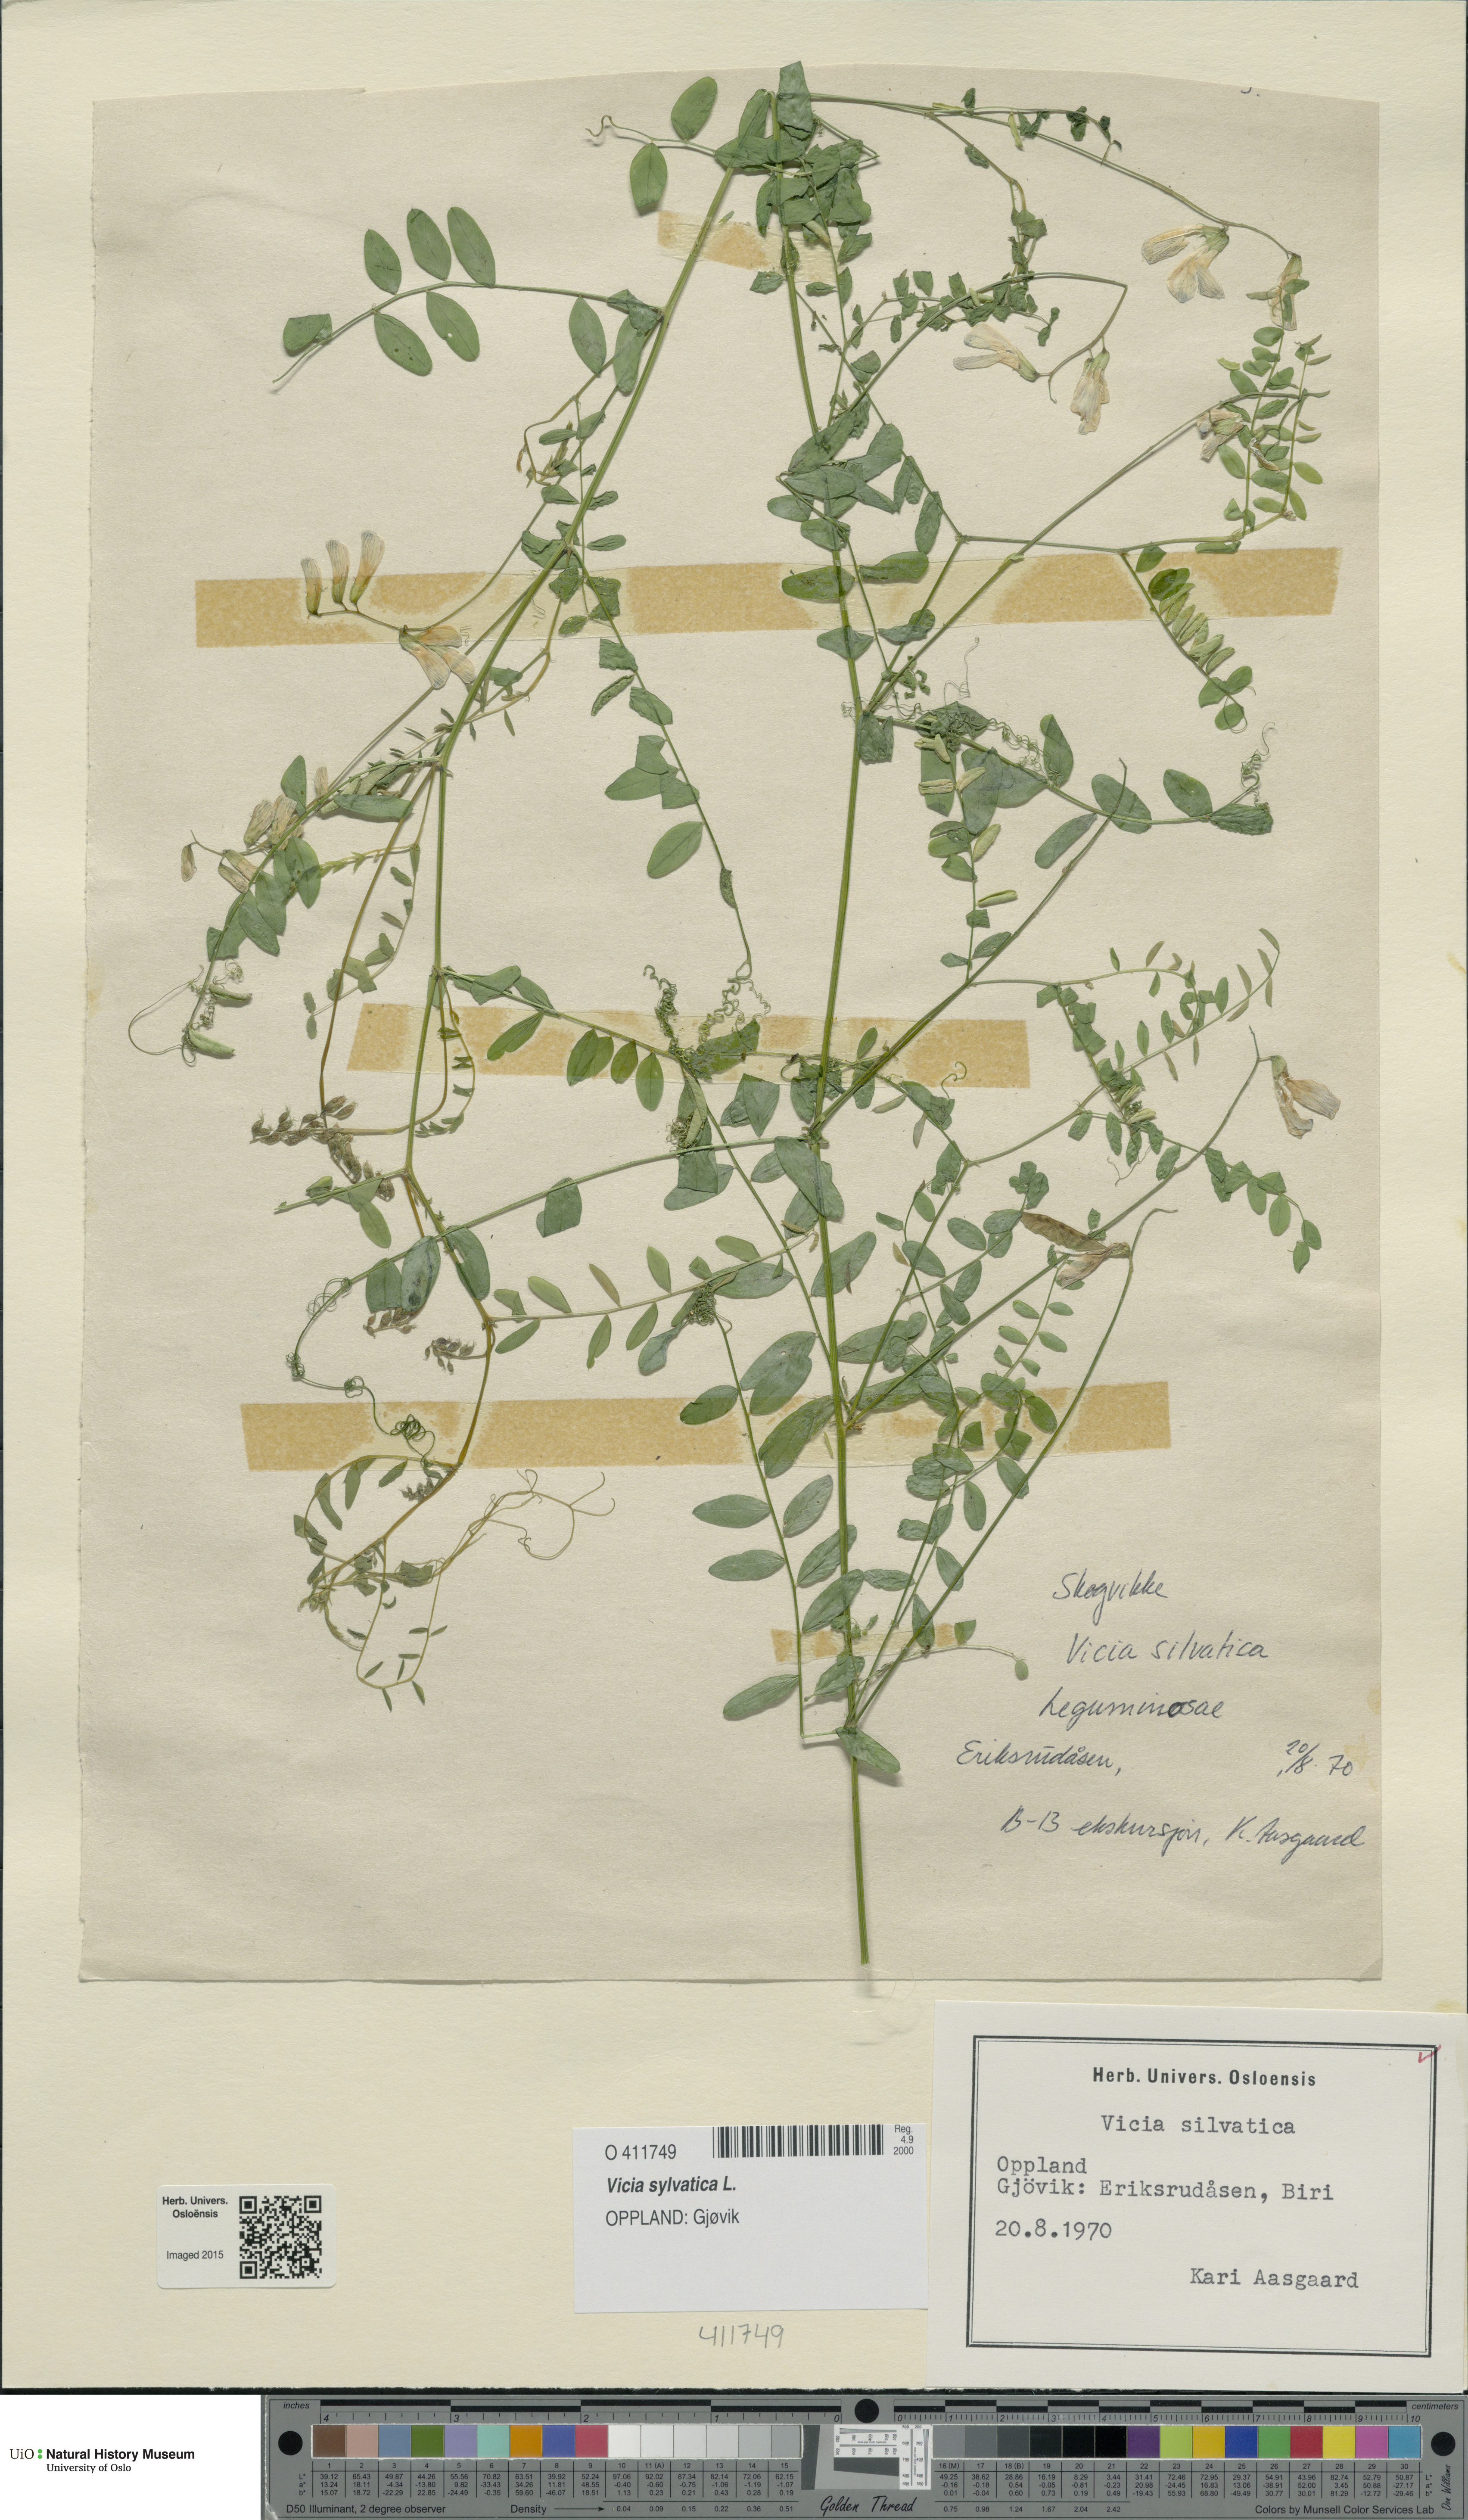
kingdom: Plantae
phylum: Tracheophyta
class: Magnoliopsida
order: Fabales
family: Fabaceae
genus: Vicia
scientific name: Vicia sylvatica
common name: Wood vetch
